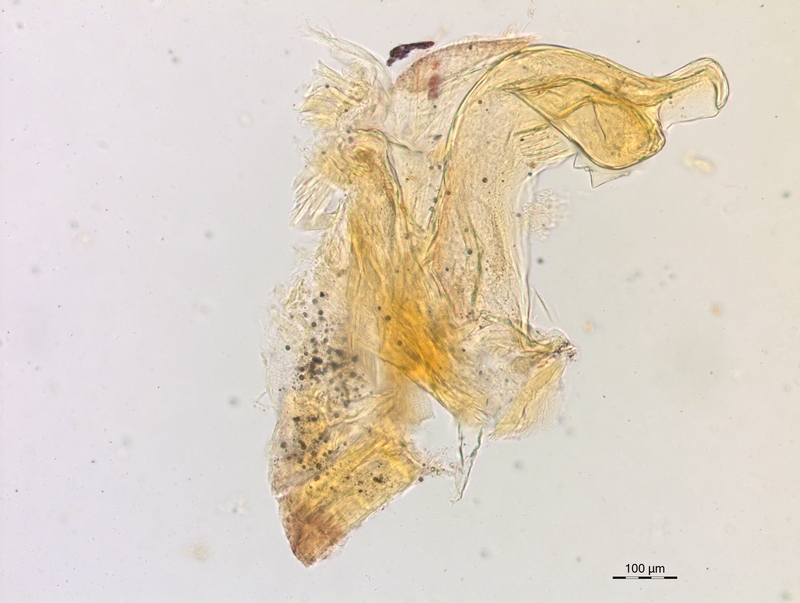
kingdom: Animalia
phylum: Arthropoda
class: Diplopoda
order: Chordeumatida
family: Craspedosomatidae
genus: Craspedosoma
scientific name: Craspedosoma rawlinsii
